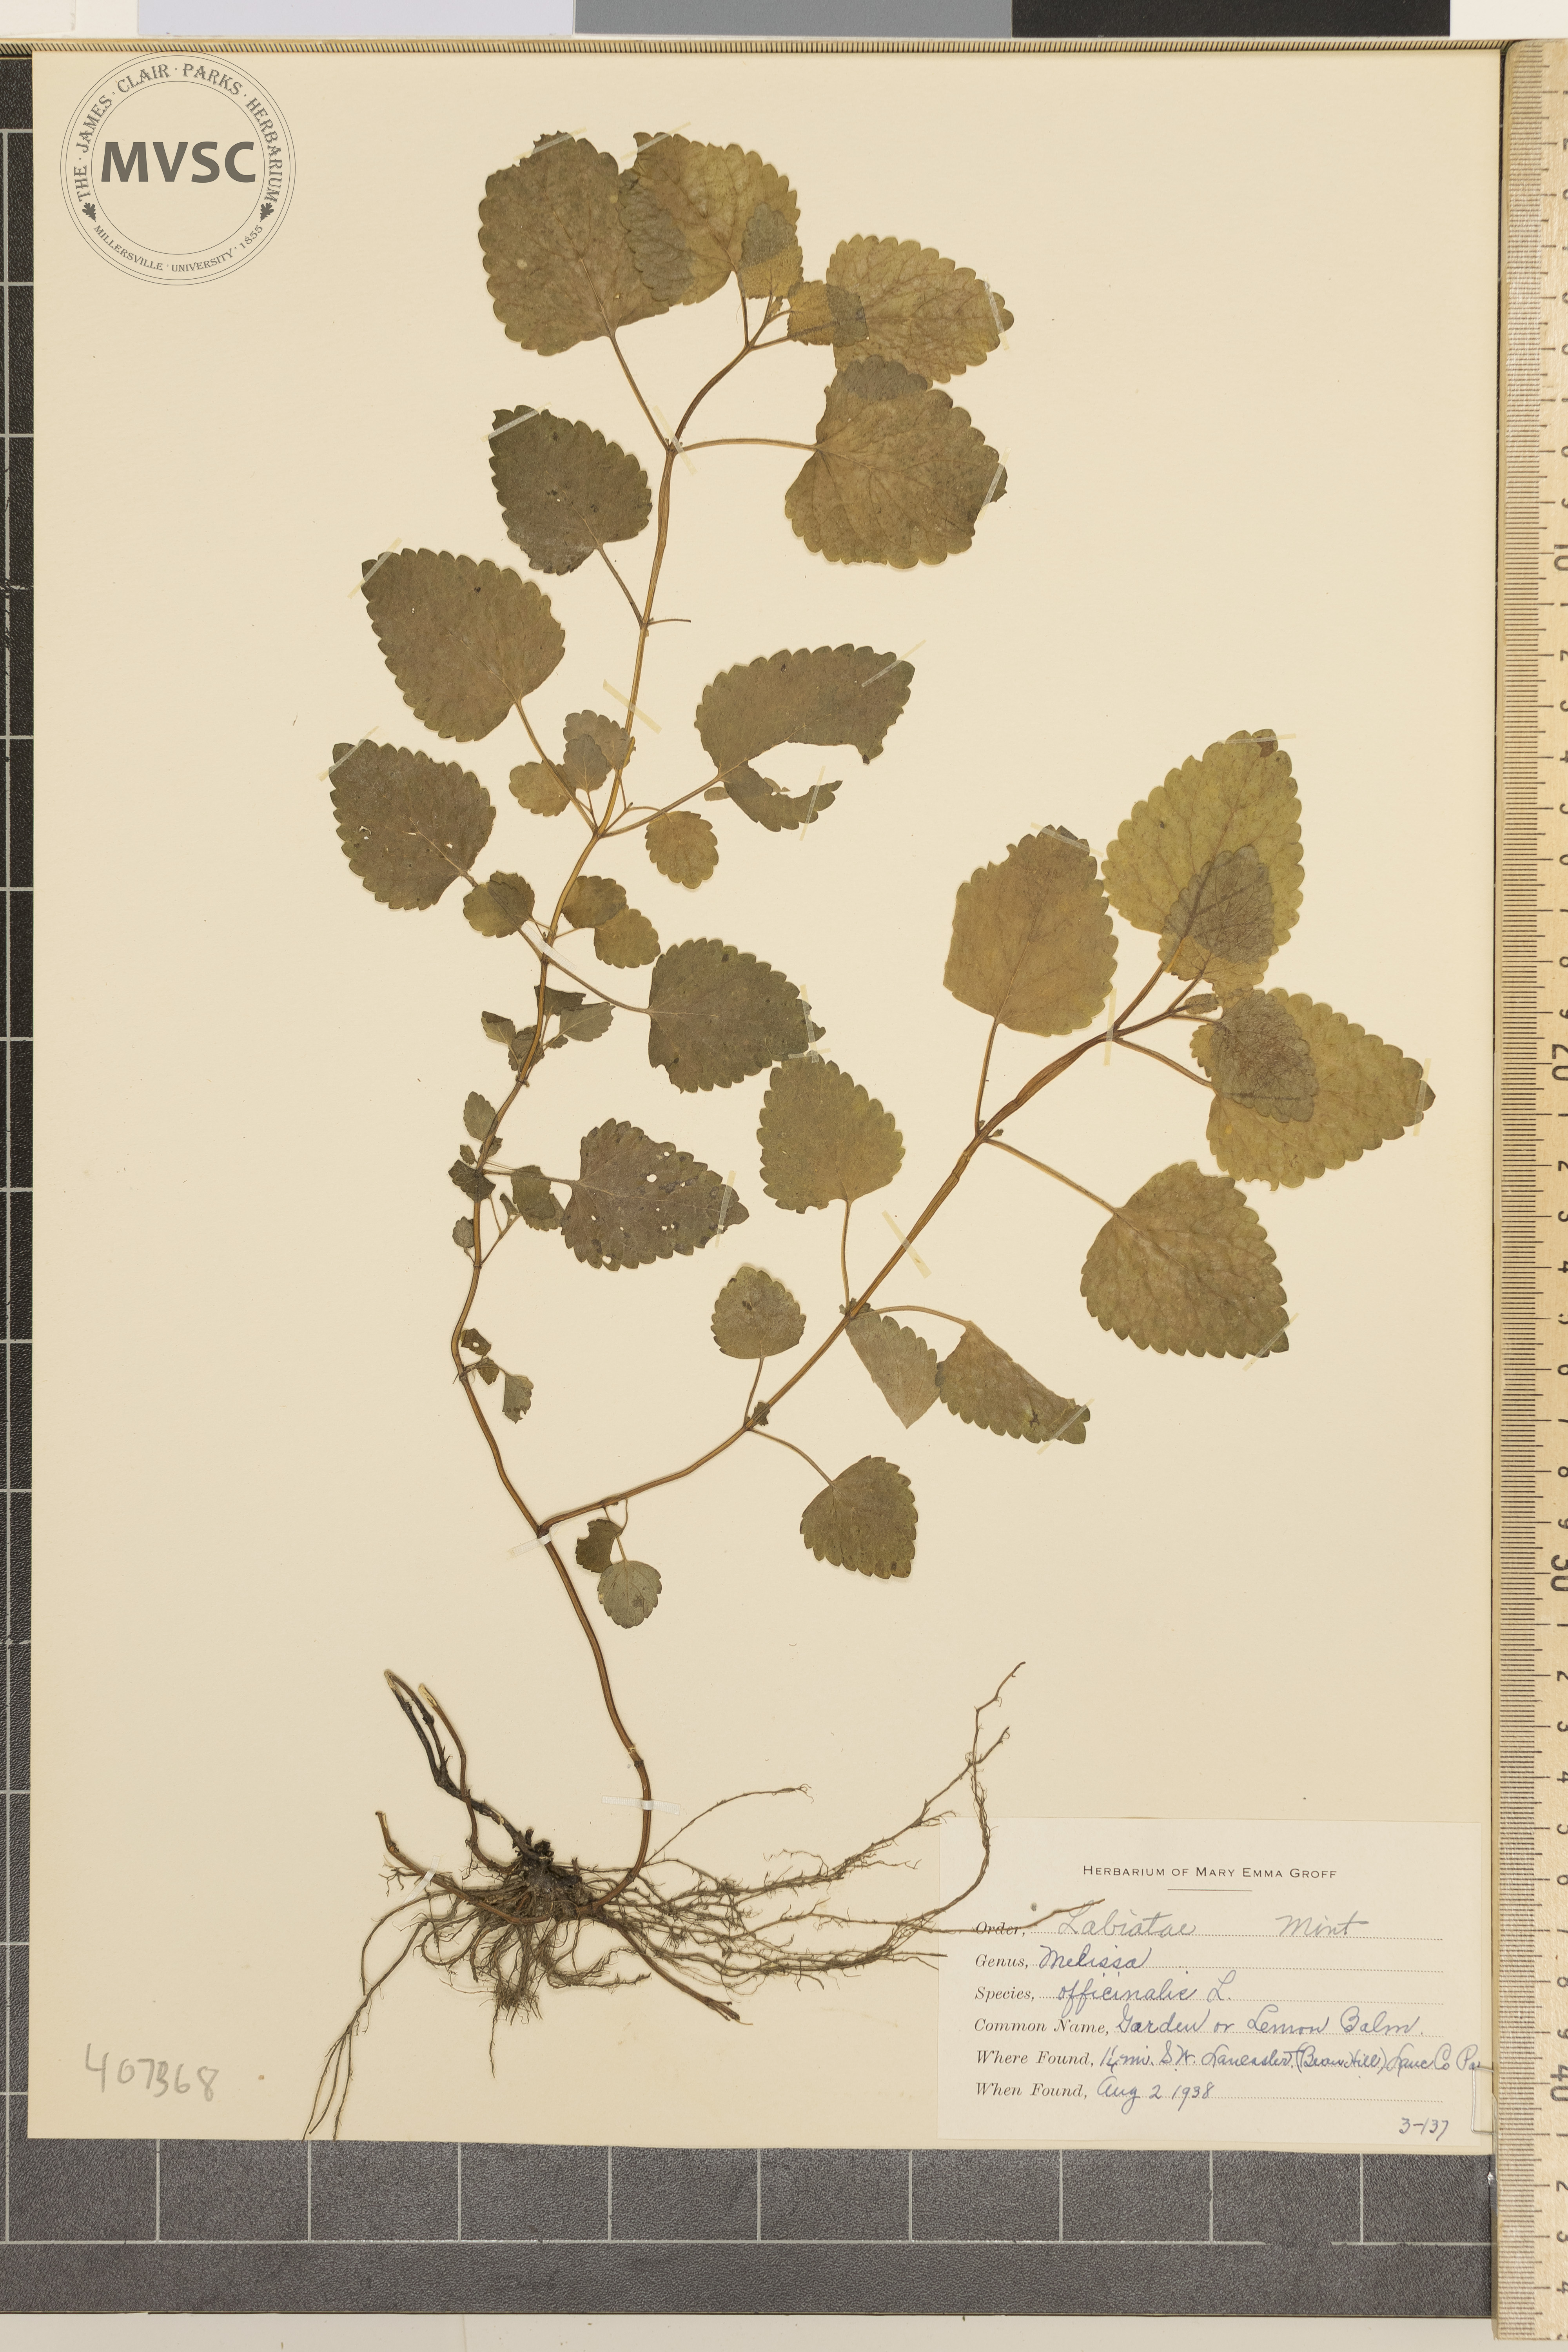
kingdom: Plantae
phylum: Tracheophyta
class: Magnoliopsida
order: Lamiales
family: Lamiaceae
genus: Melissa
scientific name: Melissa officinalis
